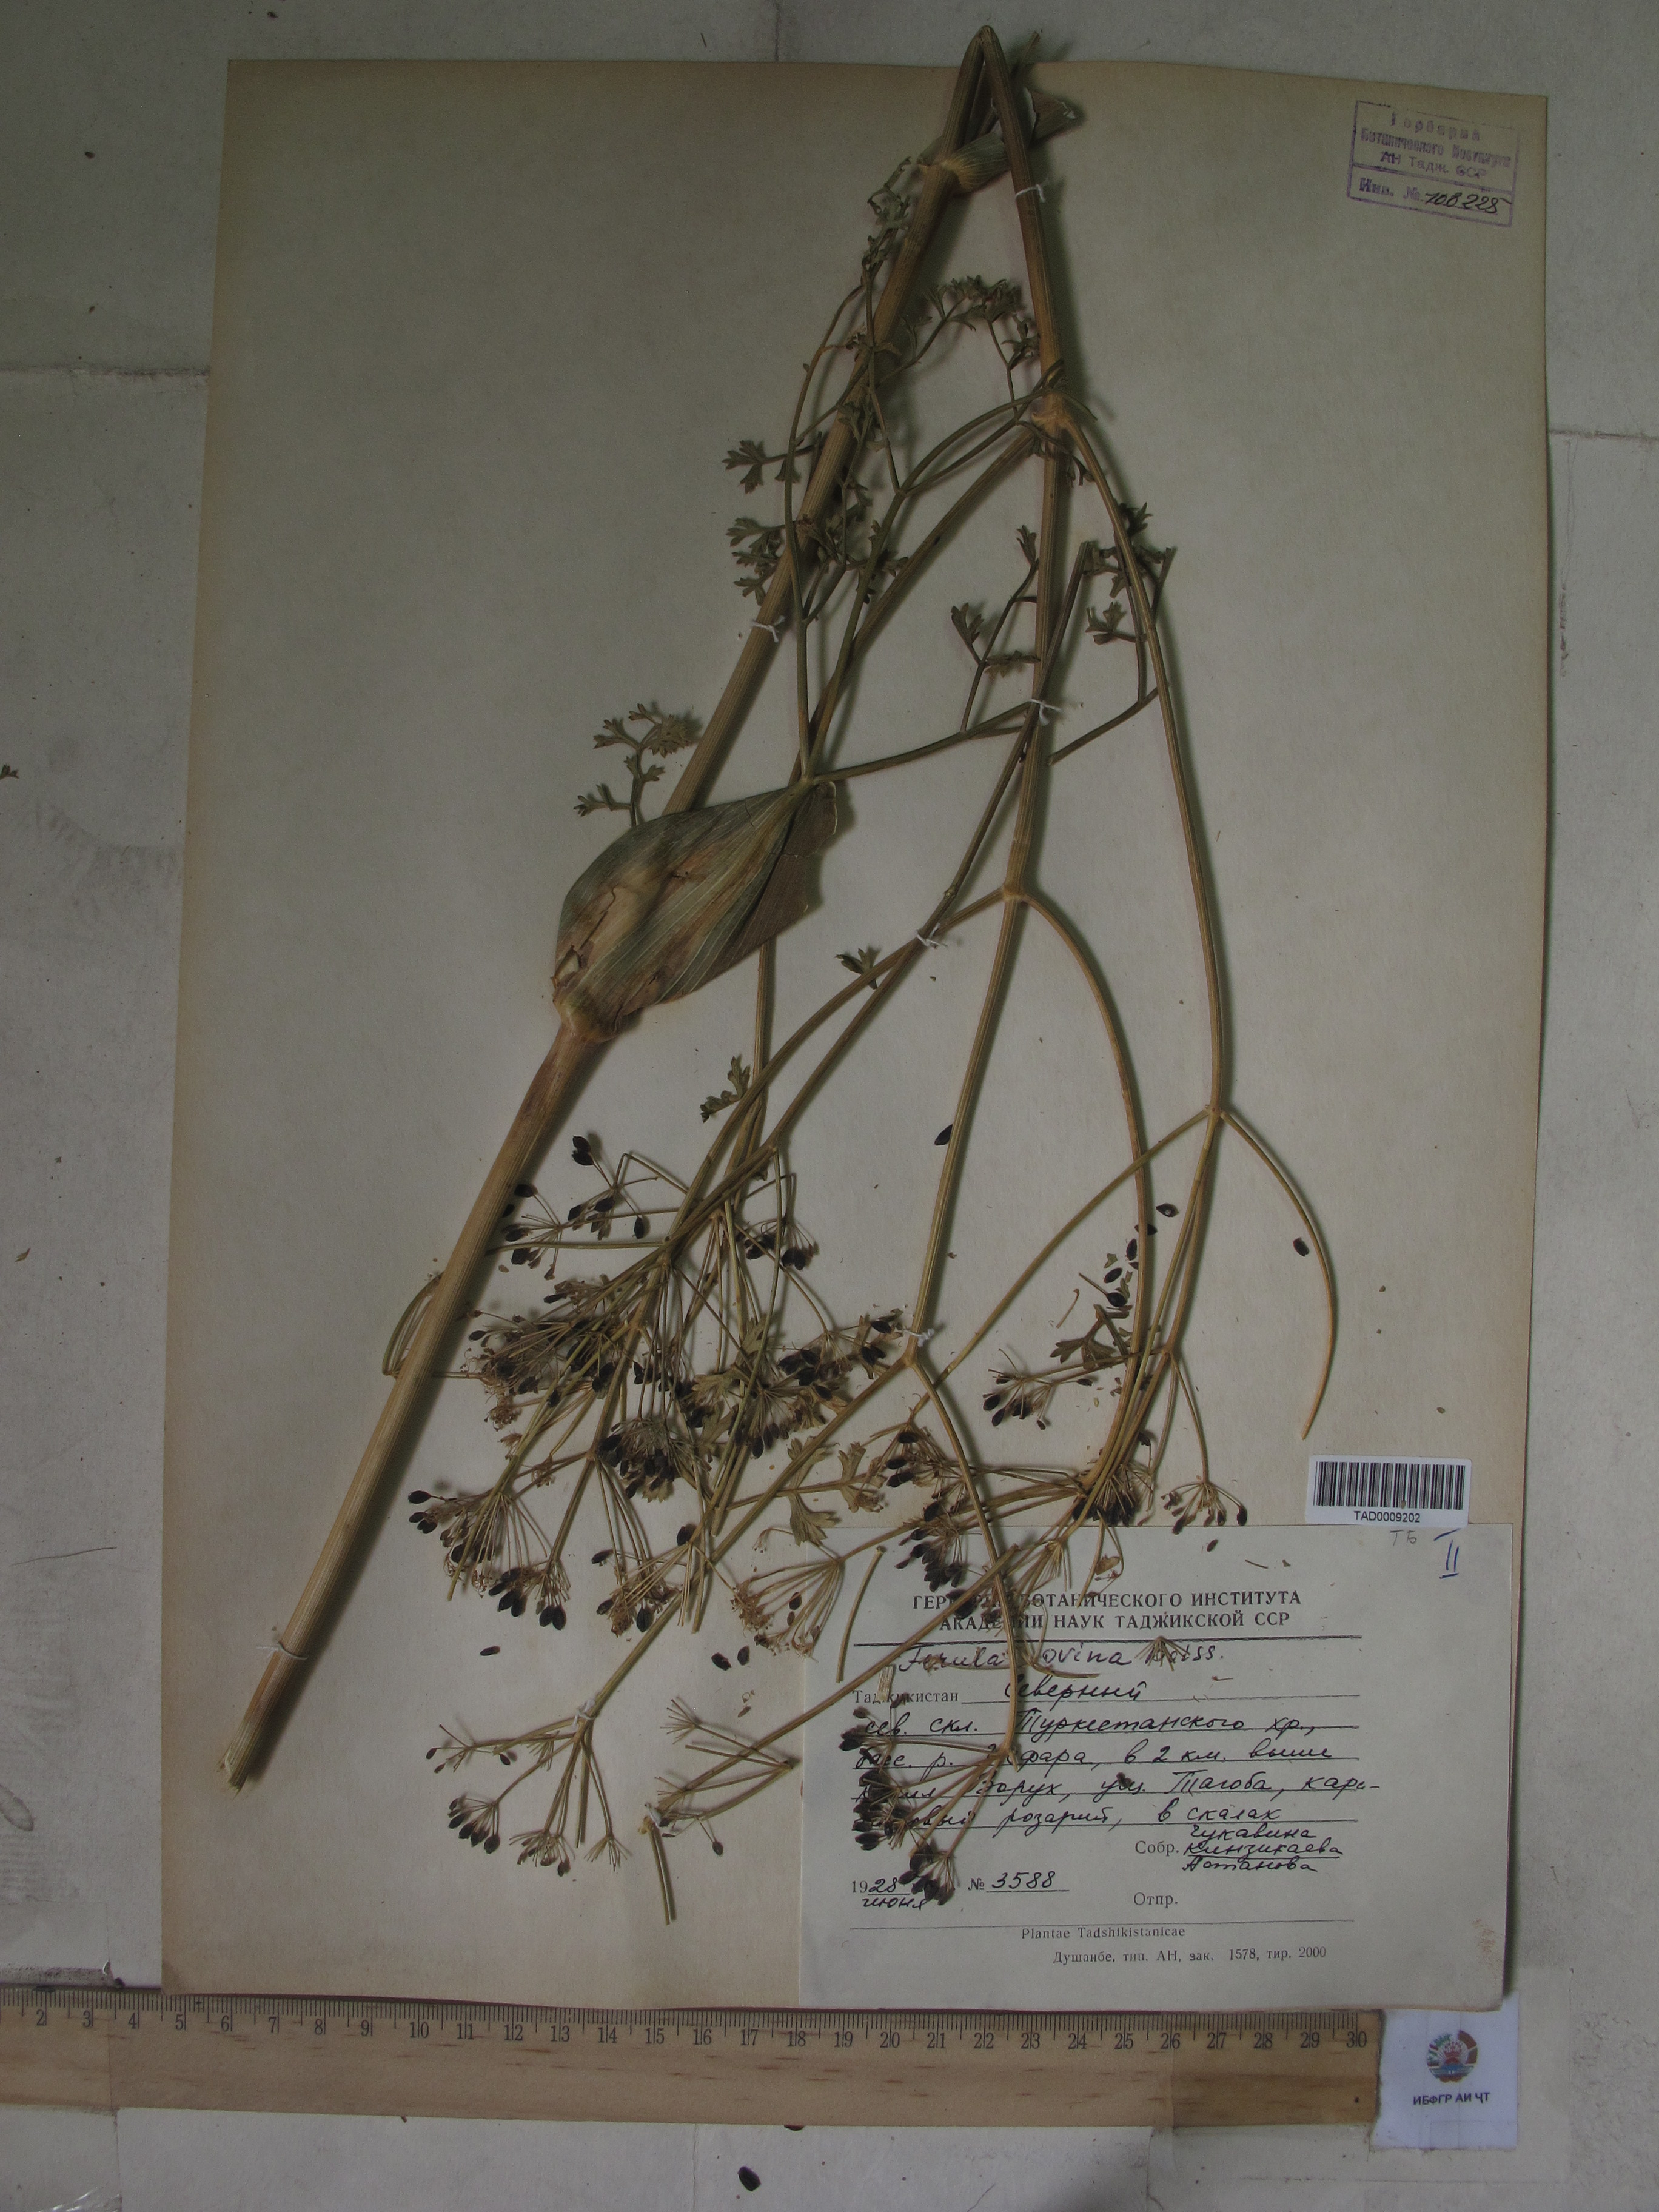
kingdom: Plantae
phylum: Tracheophyta
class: Magnoliopsida
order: Apiales
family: Apiaceae
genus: Ferula
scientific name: Ferula ovina
